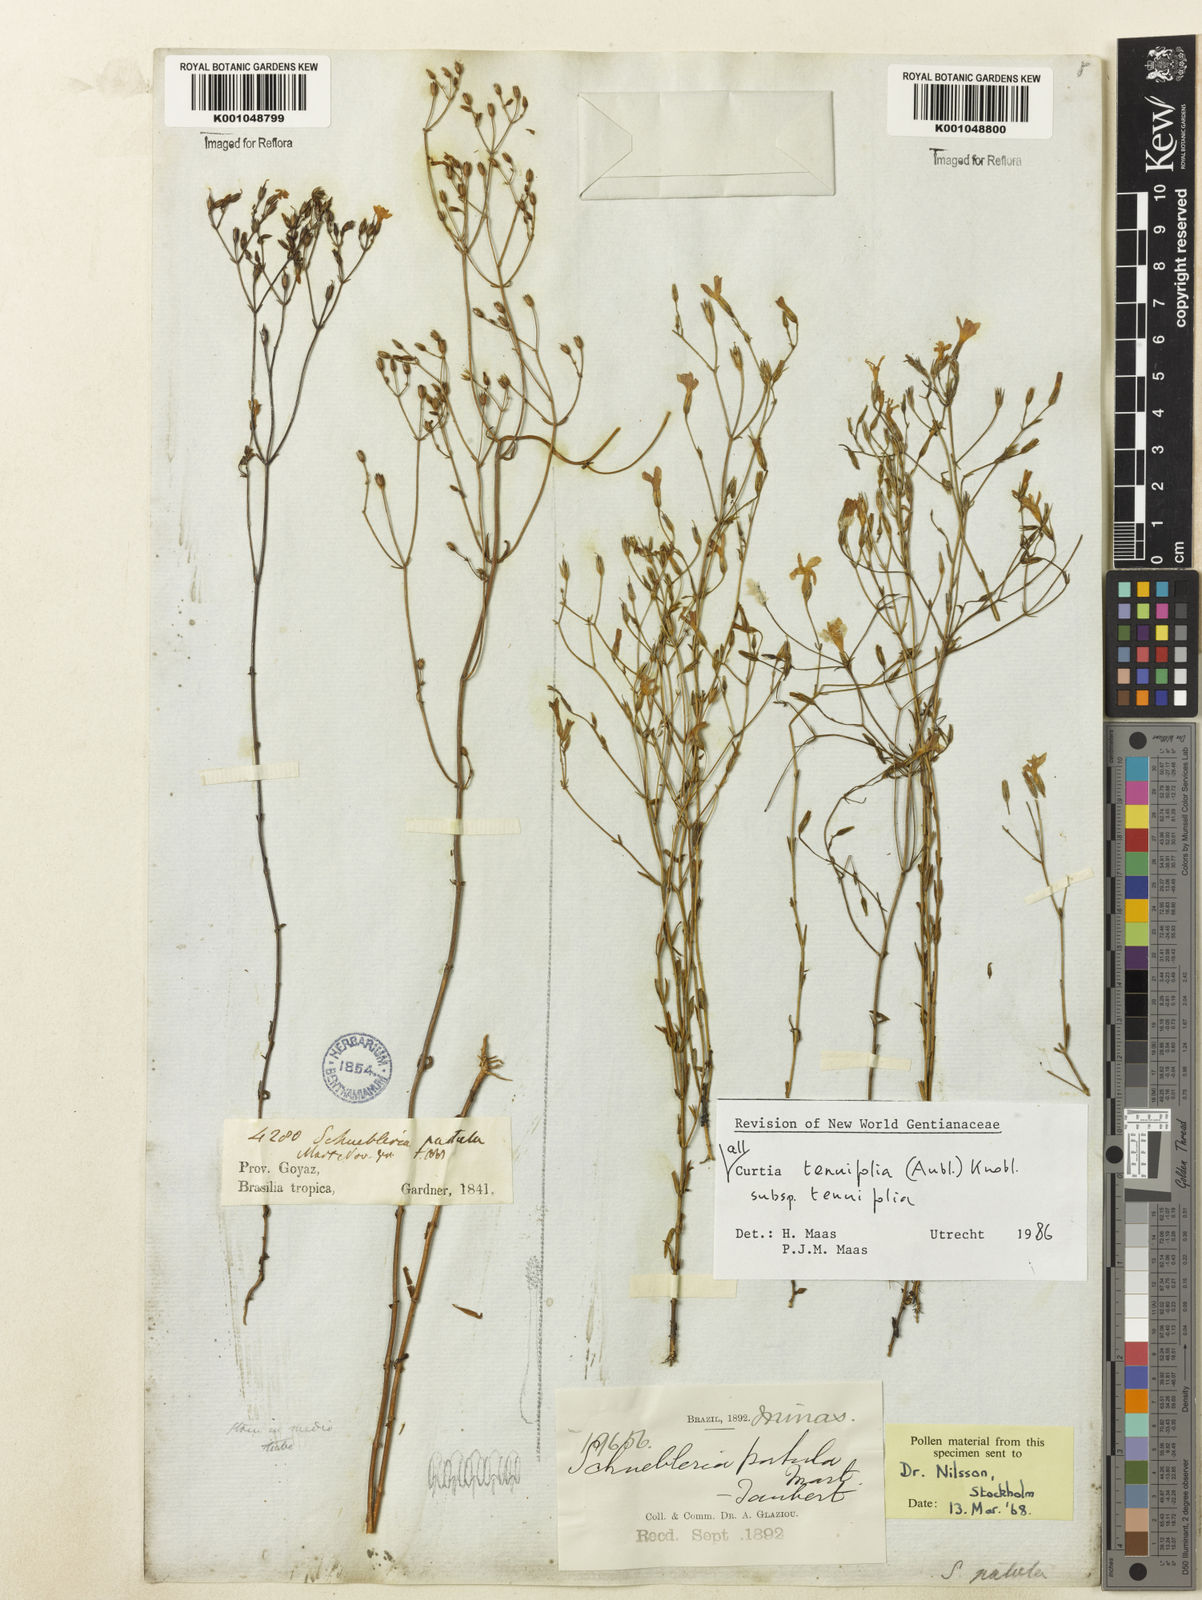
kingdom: Plantae
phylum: Tracheophyta
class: Magnoliopsida
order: Gentianales
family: Gentianaceae
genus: Curtia
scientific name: Curtia tenuifolia
